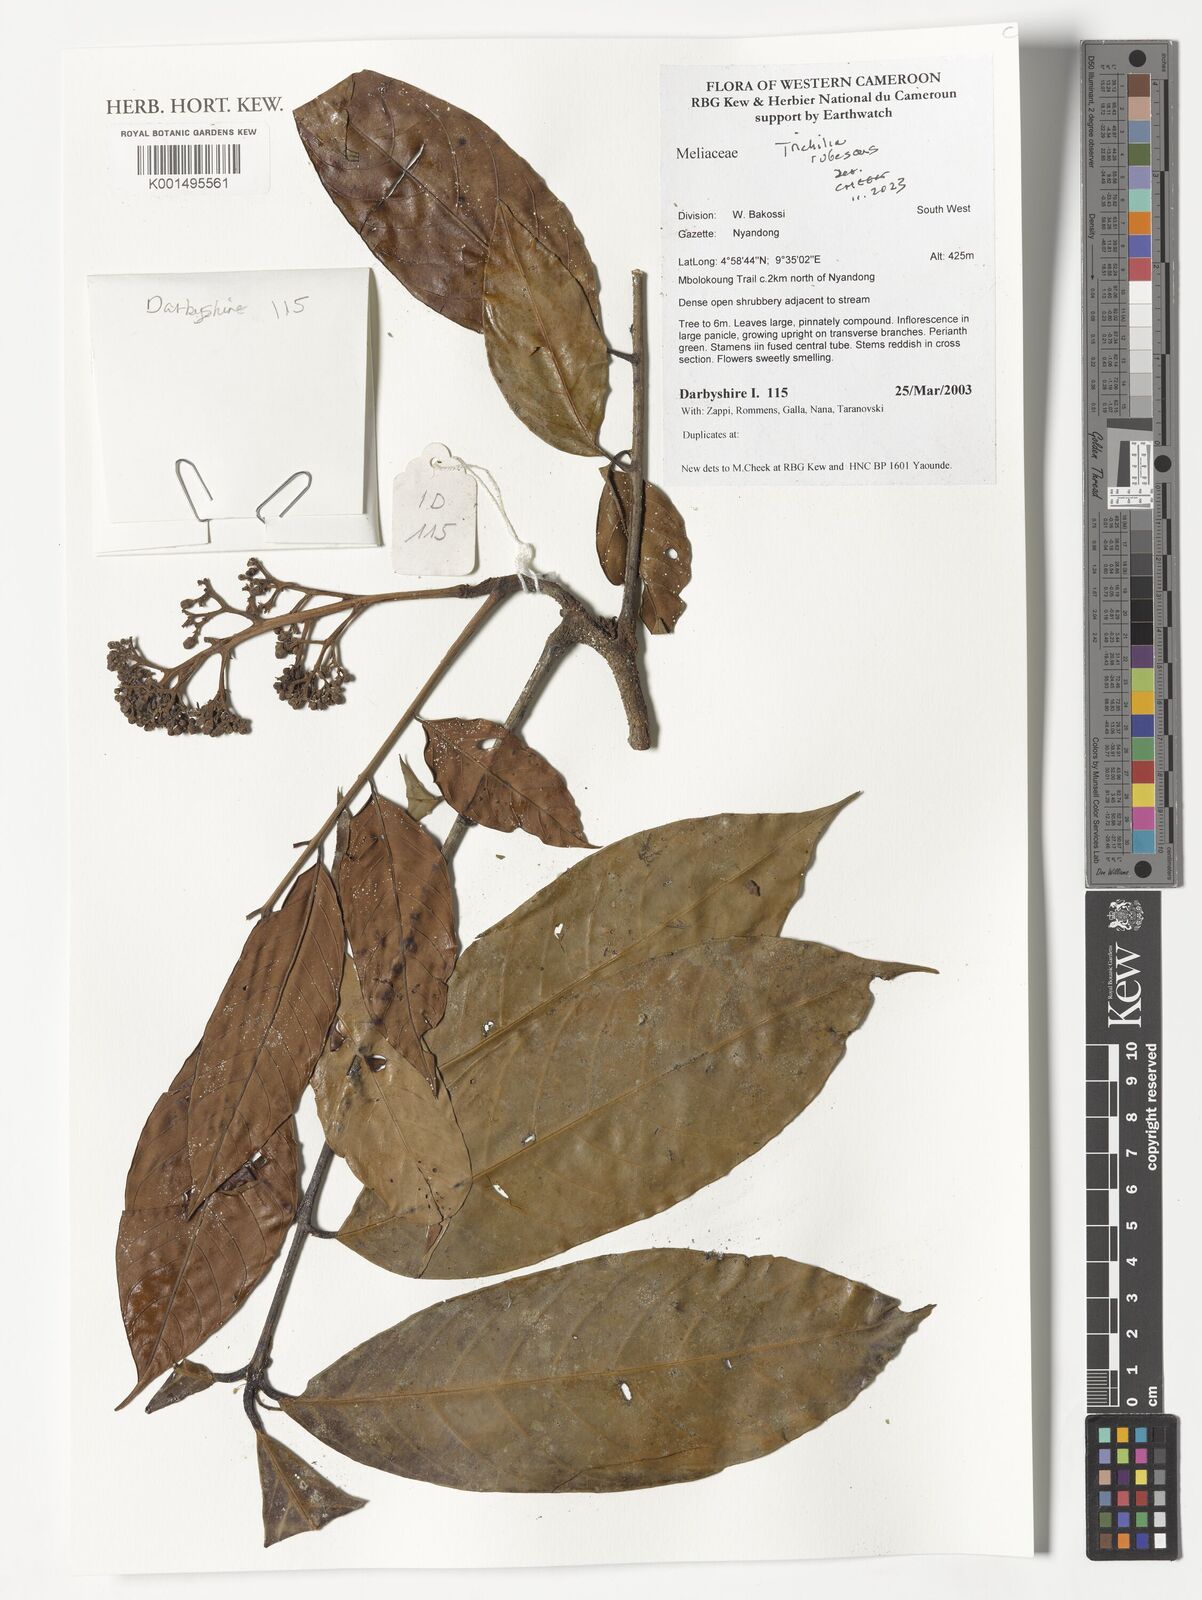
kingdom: Plantae
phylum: Tracheophyta
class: Magnoliopsida
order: Sapindales
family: Meliaceae
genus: Trichilia
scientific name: Trichilia rubescens
